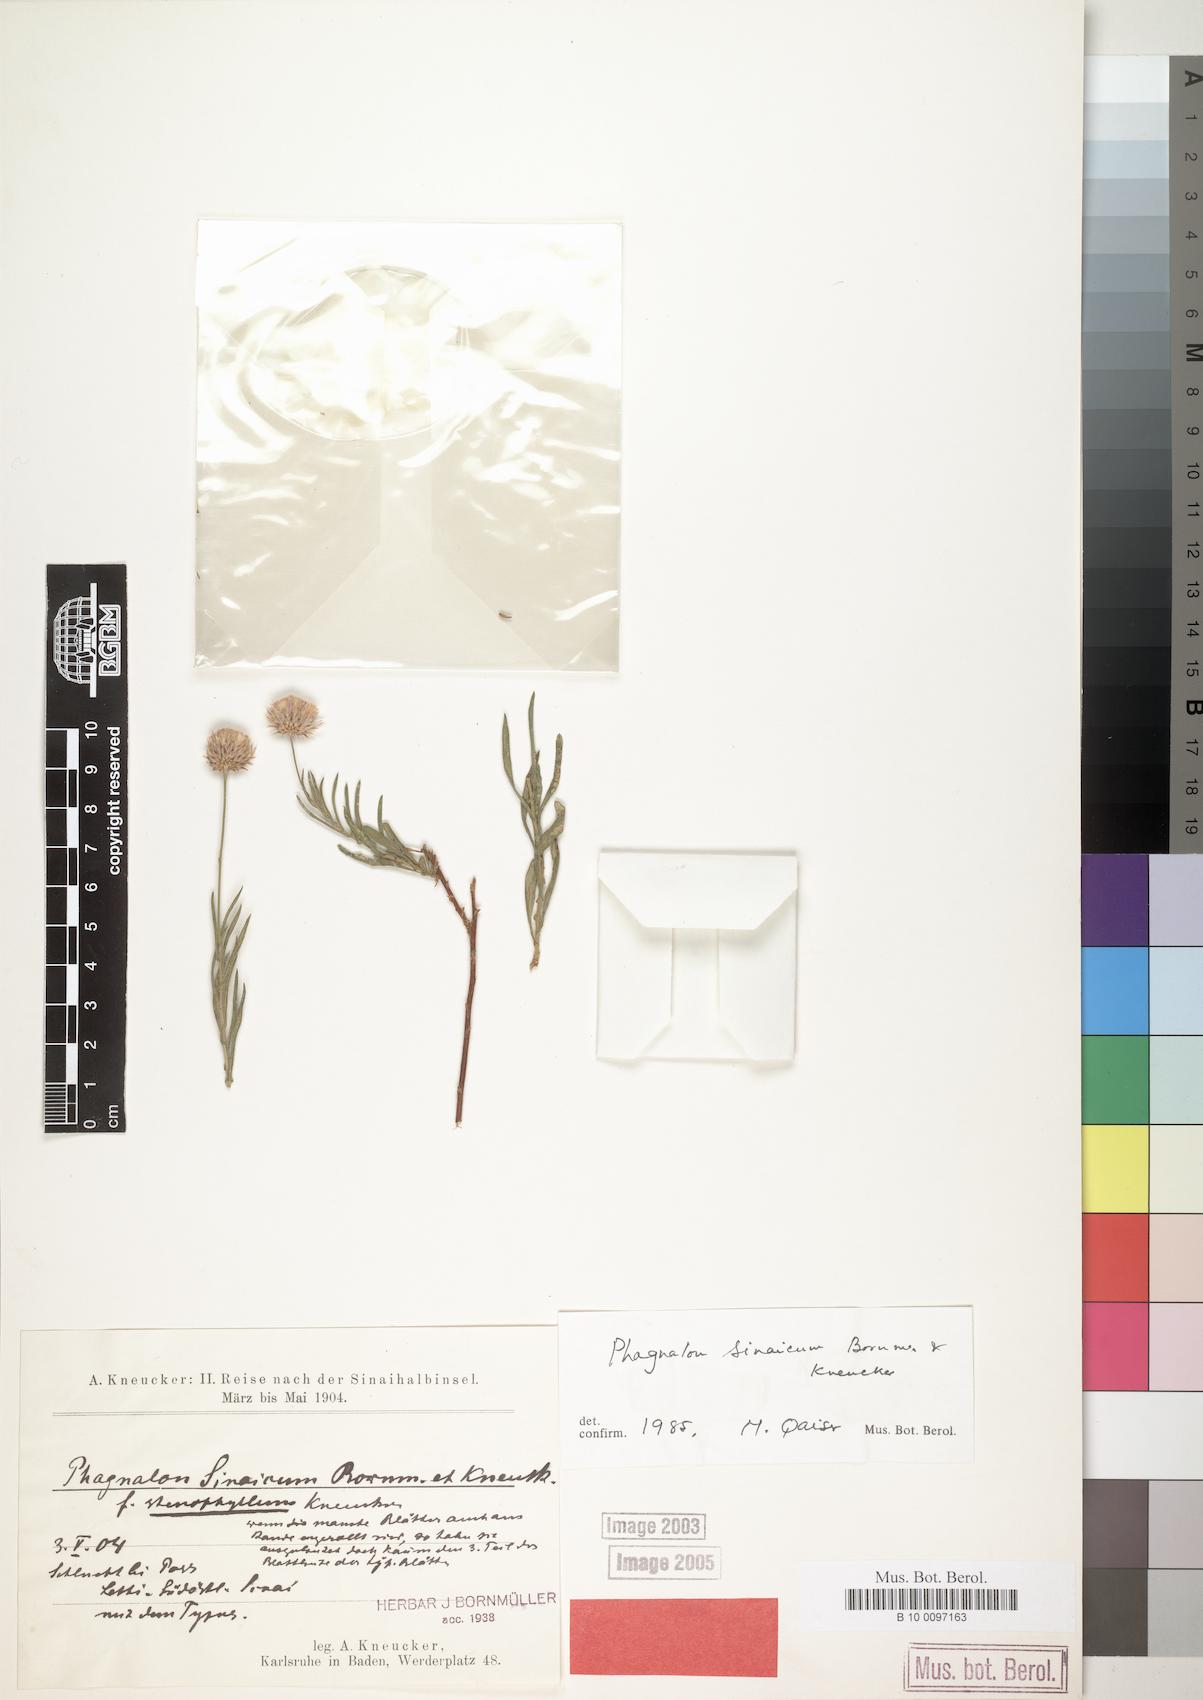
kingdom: Plantae
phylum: Tracheophyta
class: Magnoliopsida
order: Asterales
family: Asteraceae
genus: Phagnalon
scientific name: Phagnalon sinaicum
